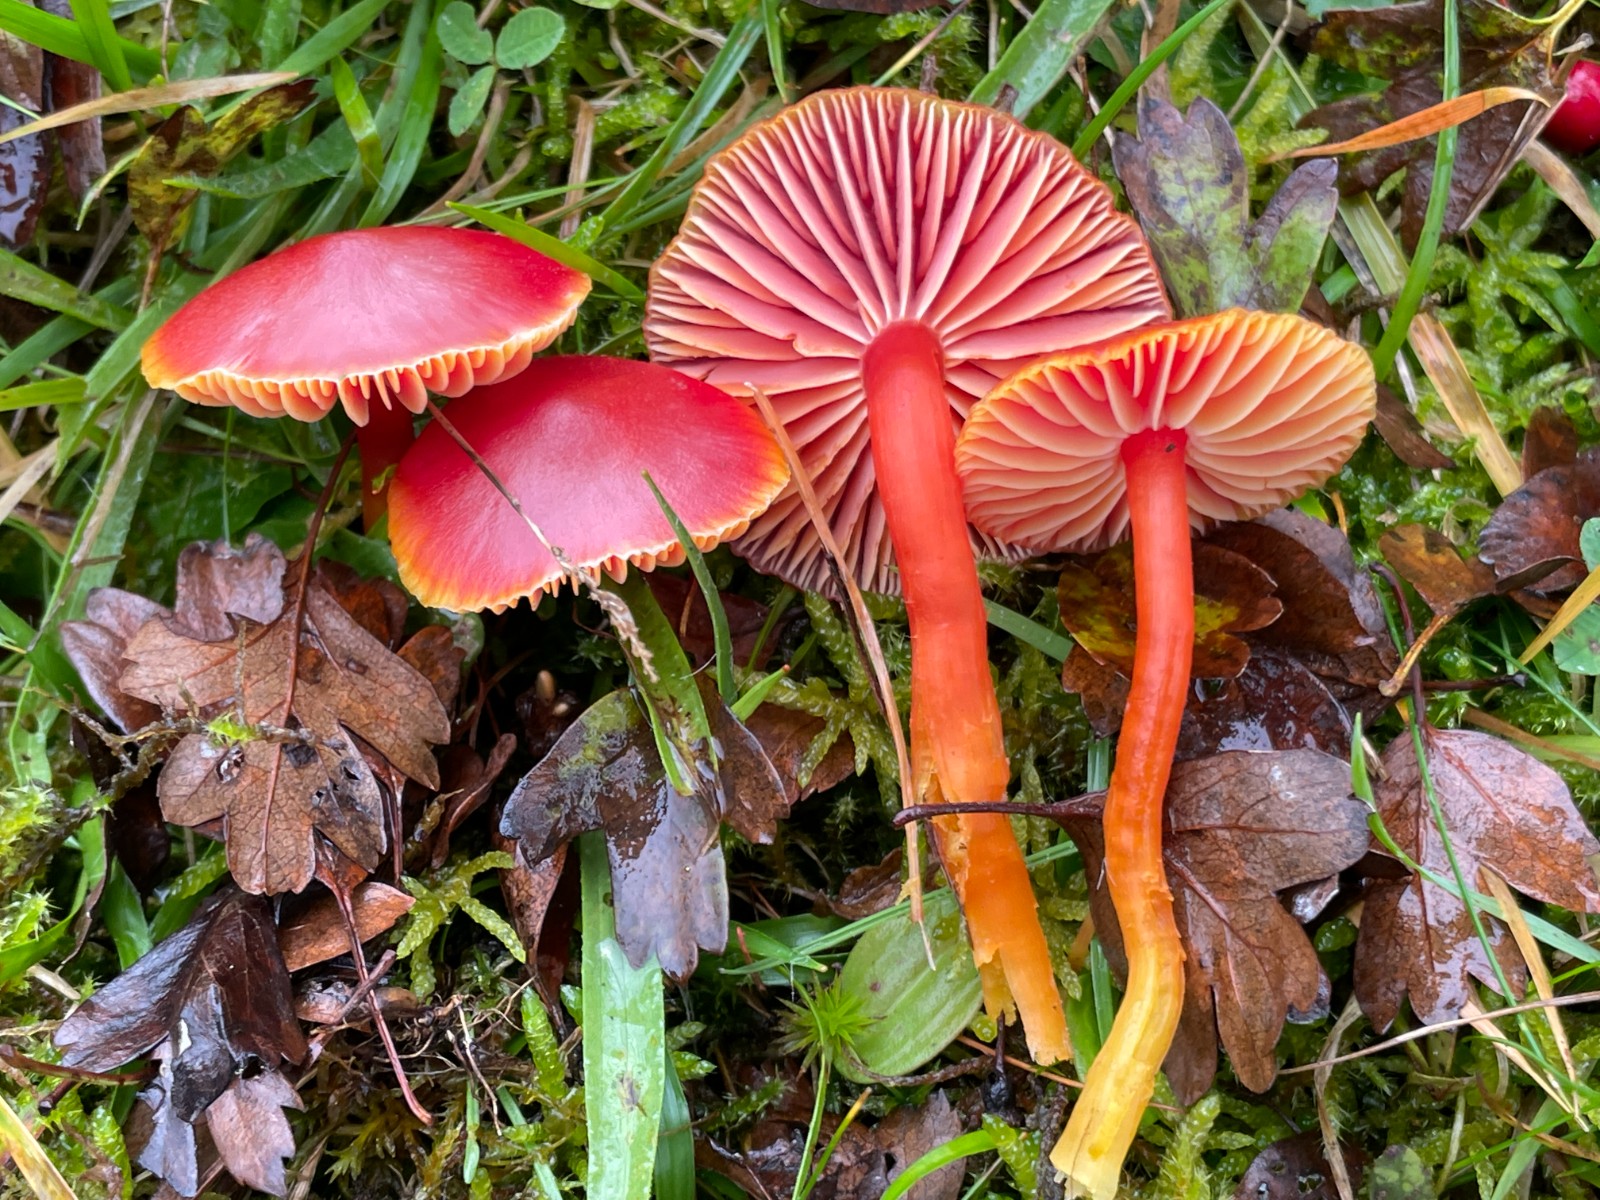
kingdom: Fungi
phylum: Basidiomycota
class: Agaricomycetes
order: Agaricales
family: Hygrophoraceae
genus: Hygrocybe
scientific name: Hygrocybe coccinea
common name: cinnober-vokshat
